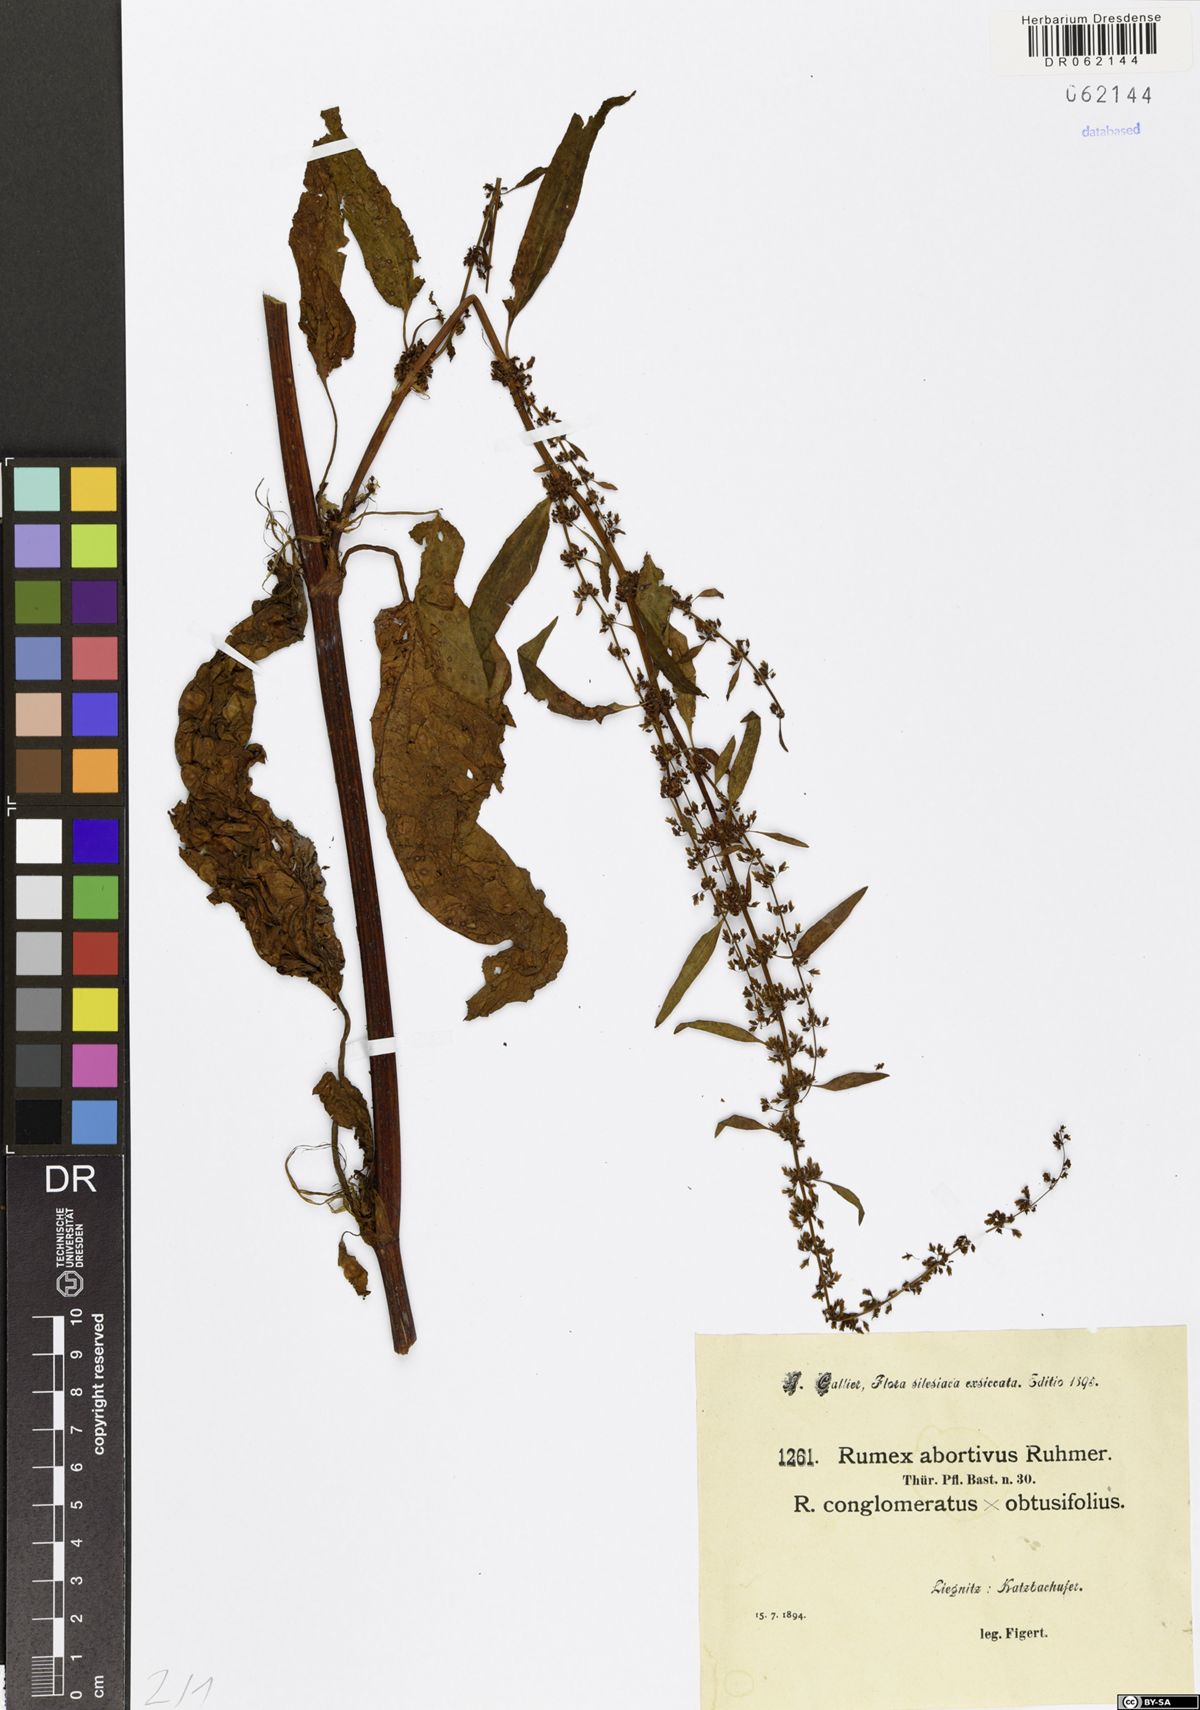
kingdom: Plantae
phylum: Tracheophyta
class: Magnoliopsida
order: Caryophyllales
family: Polygonaceae
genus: Rumex
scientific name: Rumex abortivus
